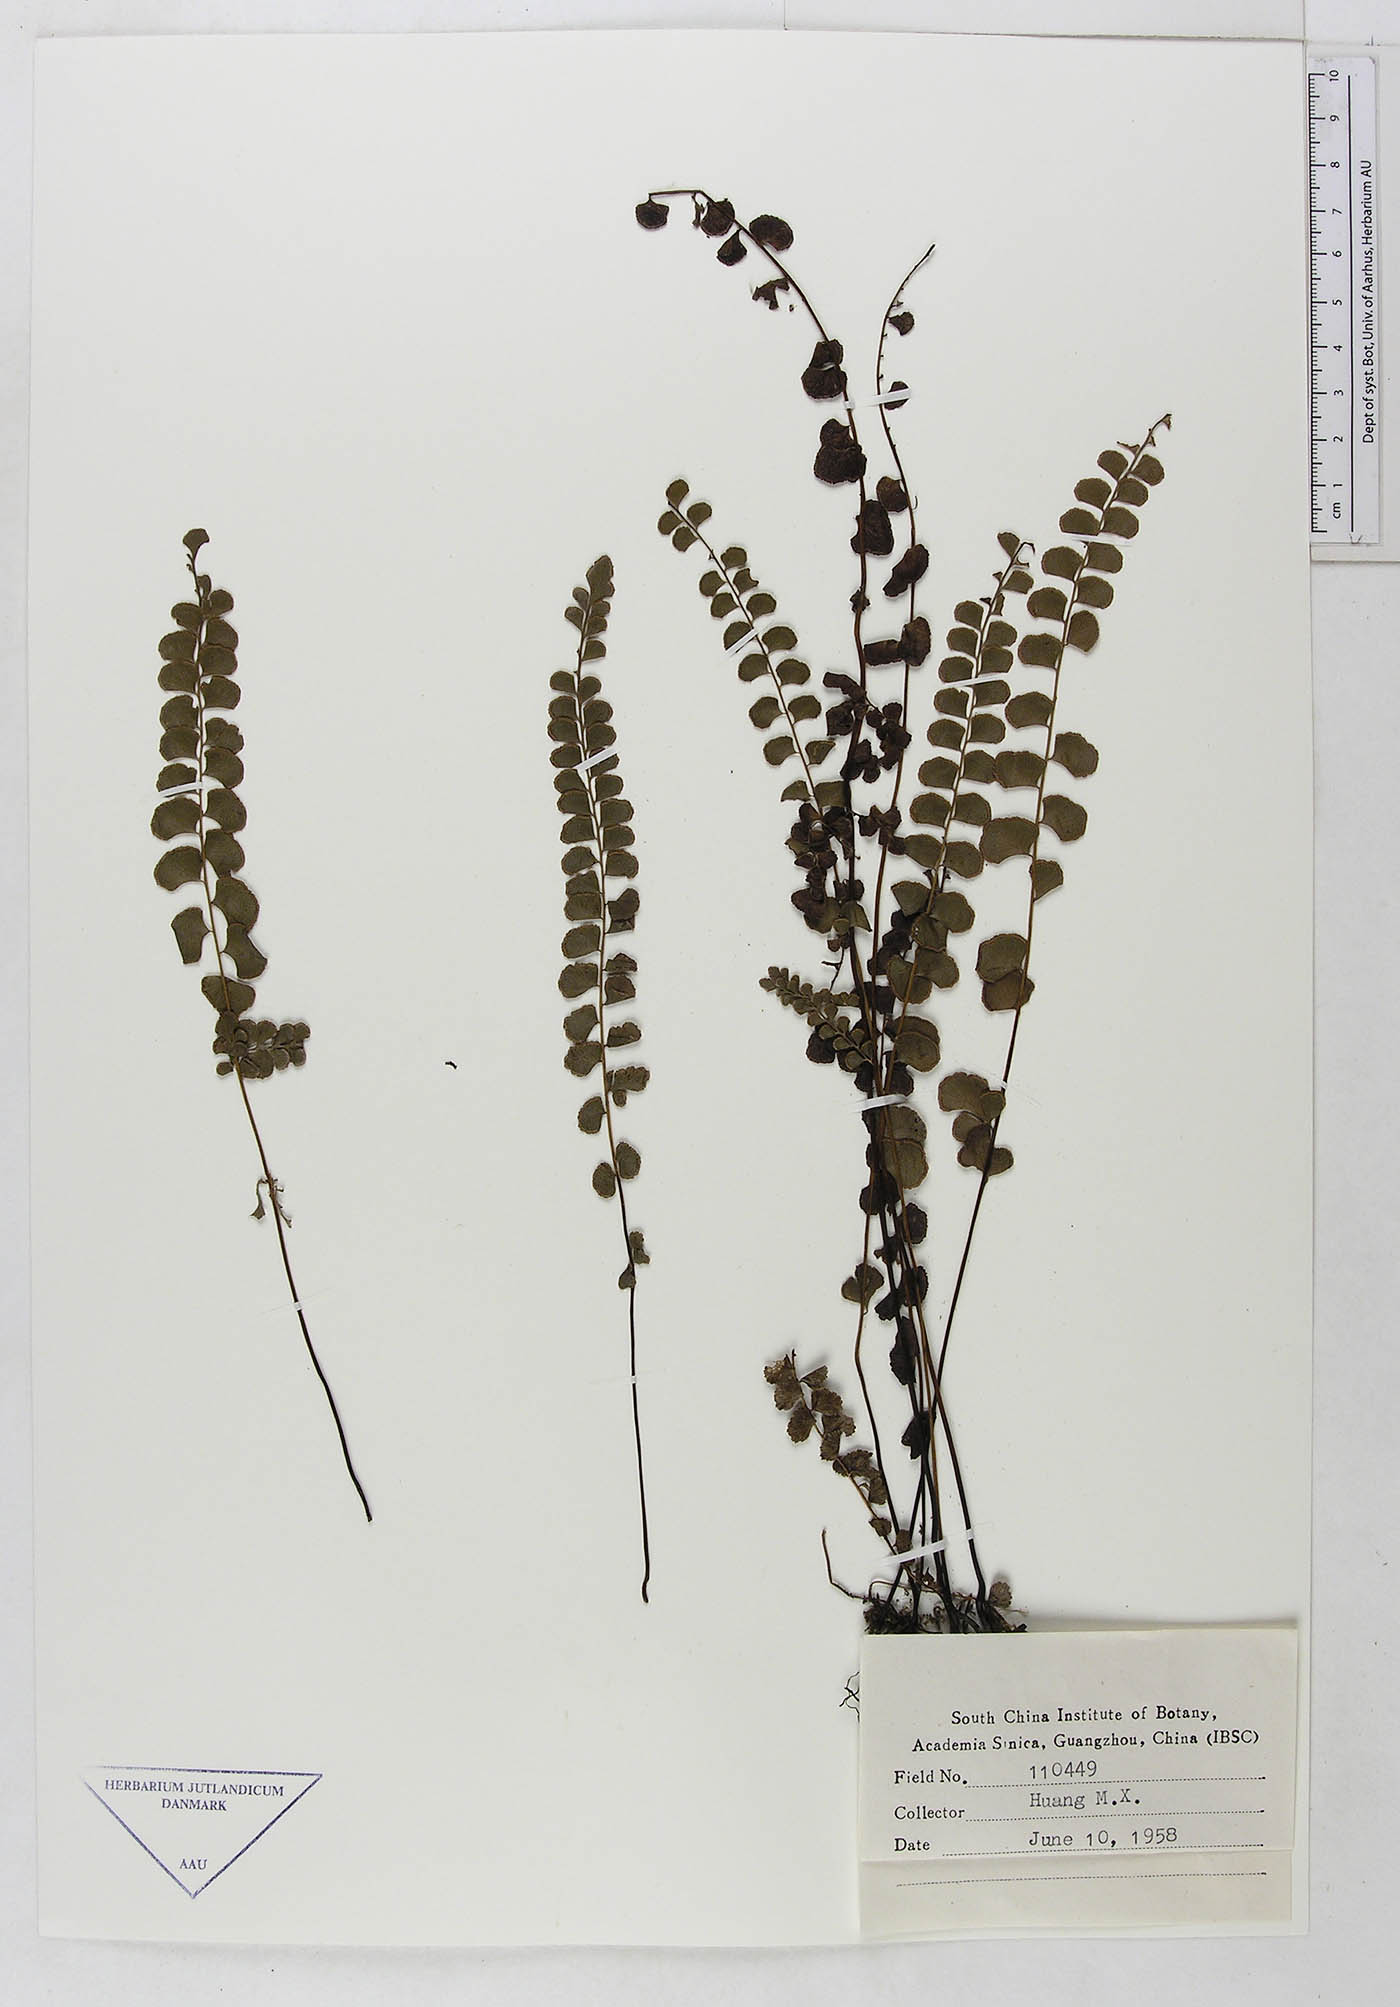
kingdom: Plantae
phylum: Tracheophyta
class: Polypodiopsida
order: Polypodiales
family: Dennstaedtiaceae
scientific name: Dennstaedtiaceae
